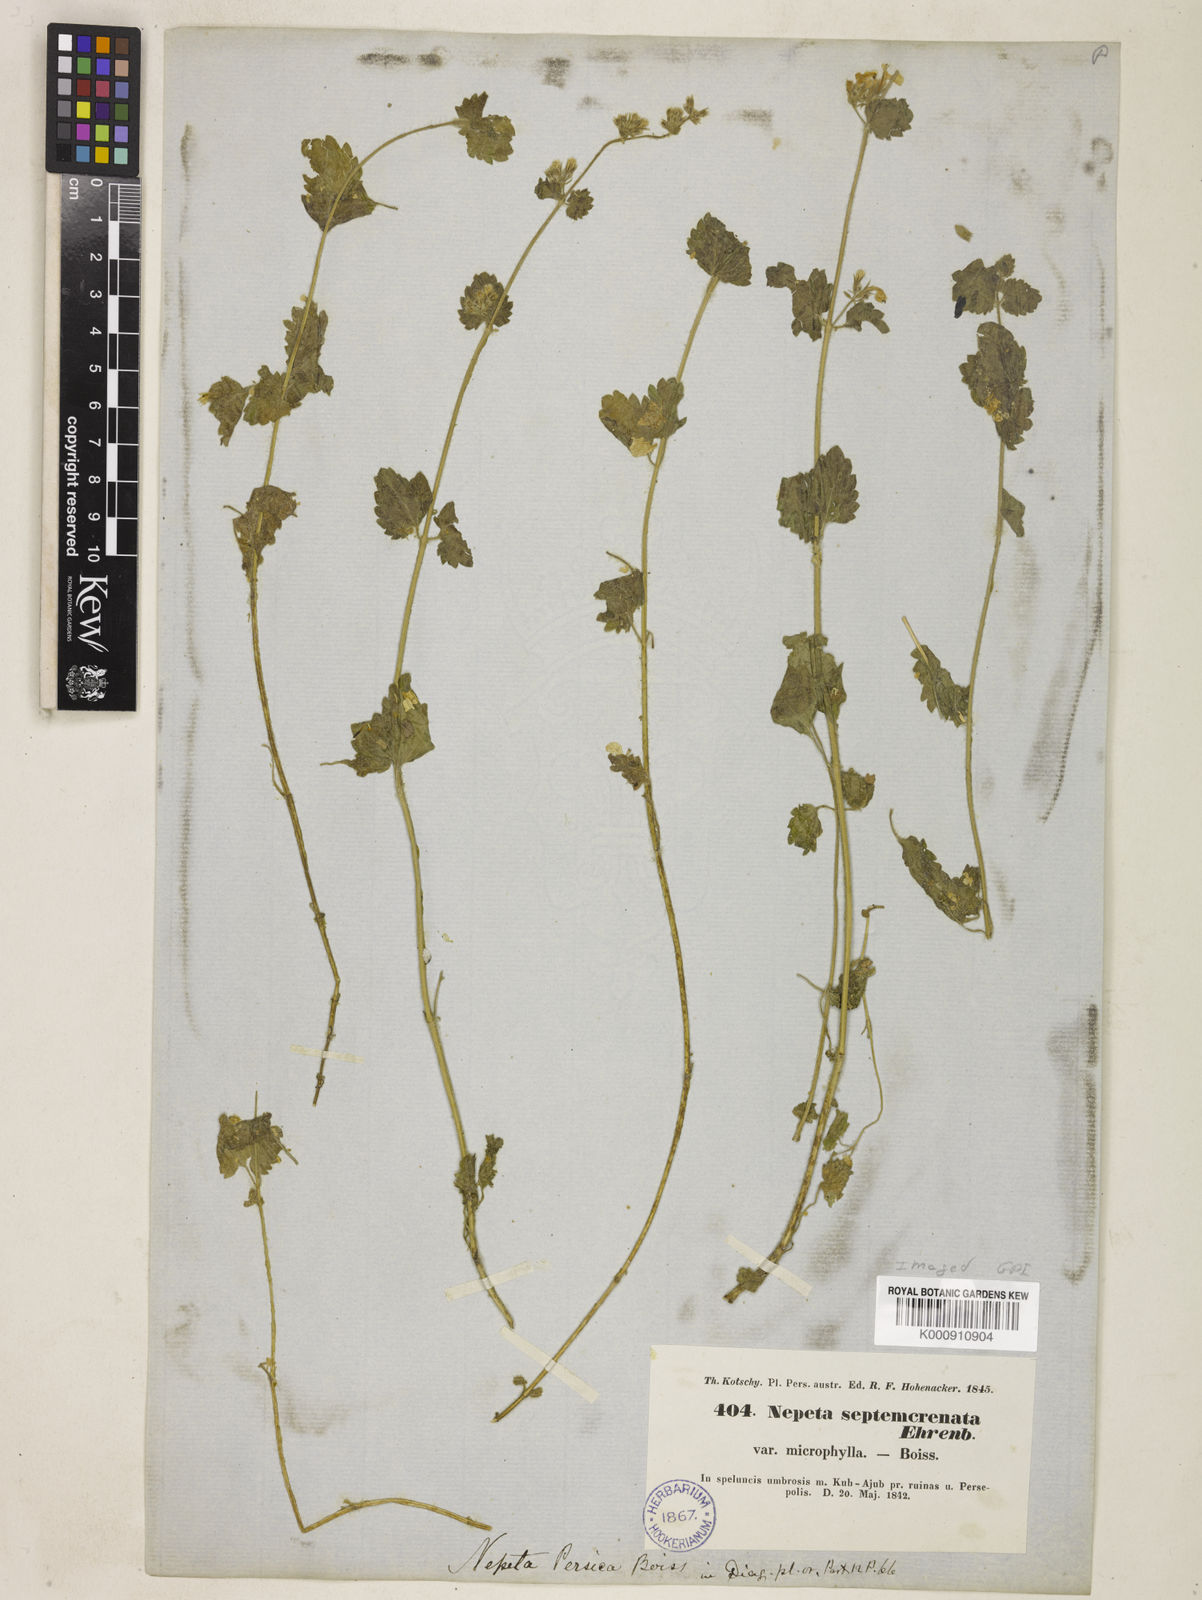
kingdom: Plantae
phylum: Tracheophyta
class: Magnoliopsida
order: Lamiales
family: Lamiaceae
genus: Nepeta
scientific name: Nepeta
